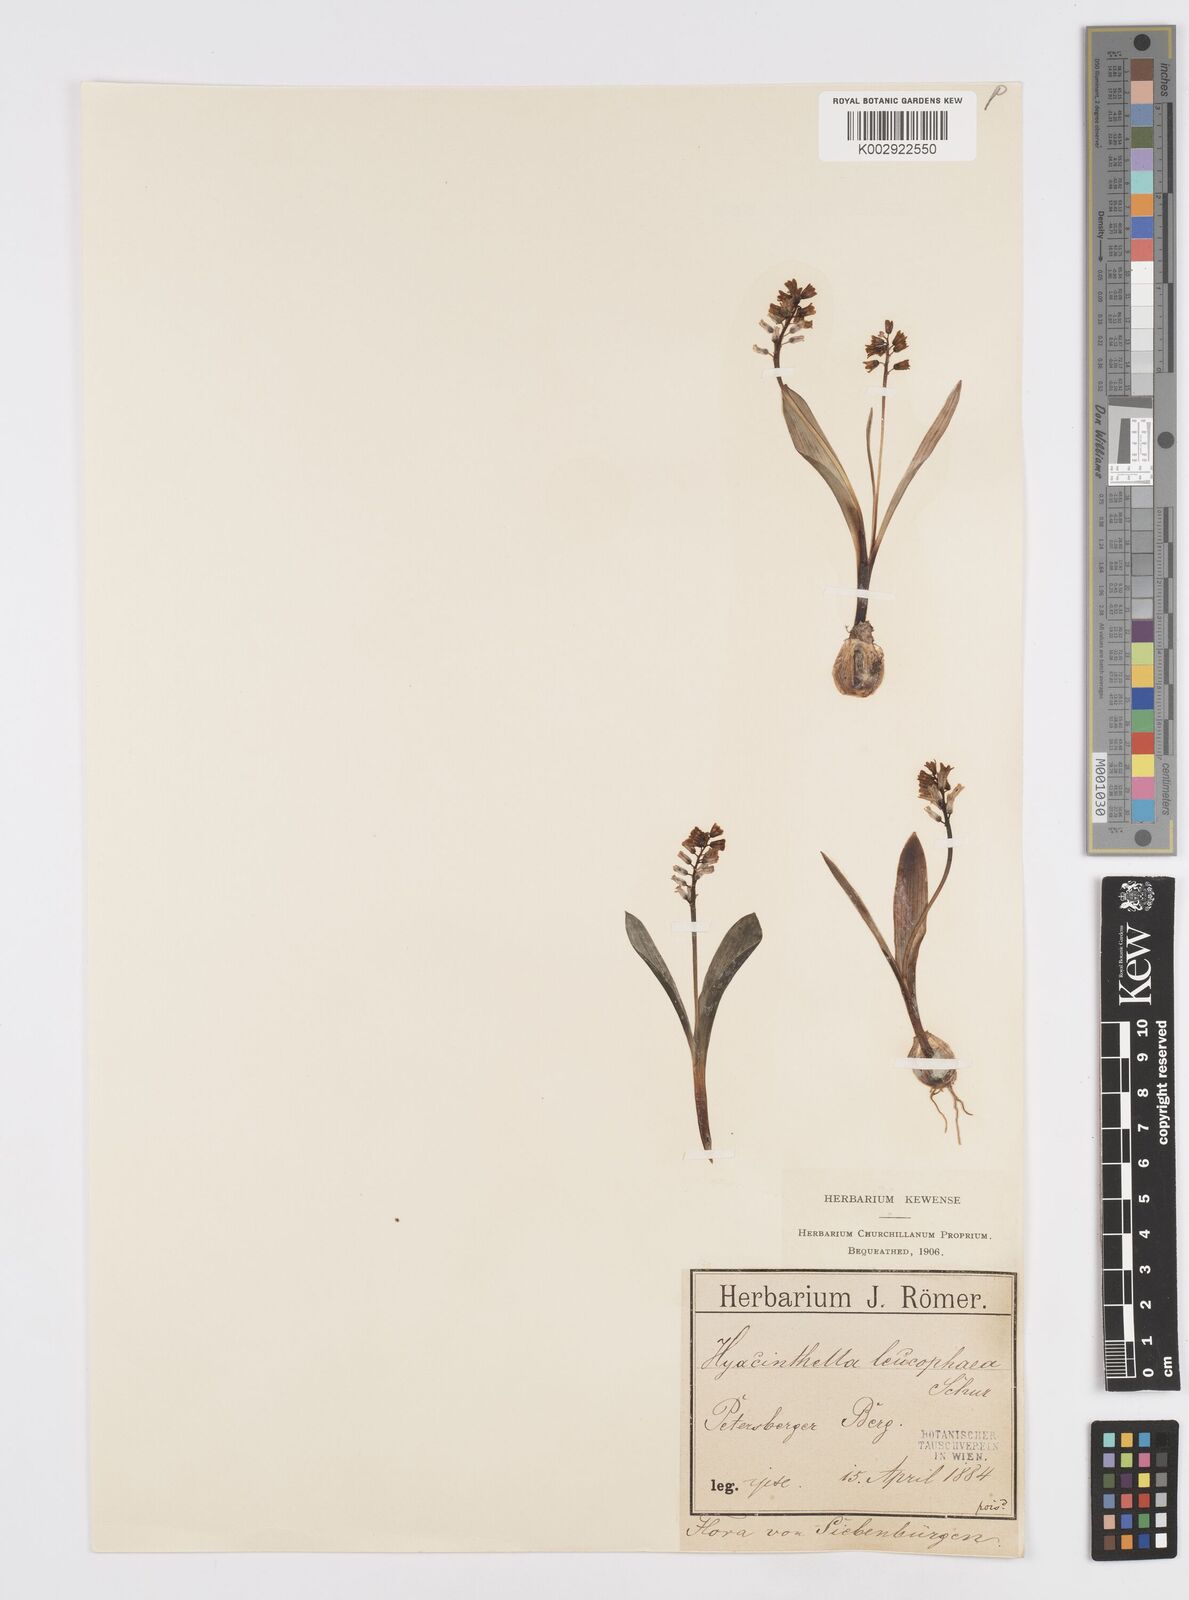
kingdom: Plantae
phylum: Tracheophyta
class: Liliopsida
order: Asparagales
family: Asparagaceae
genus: Hyacinthella
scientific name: Hyacinthella leucophaea
